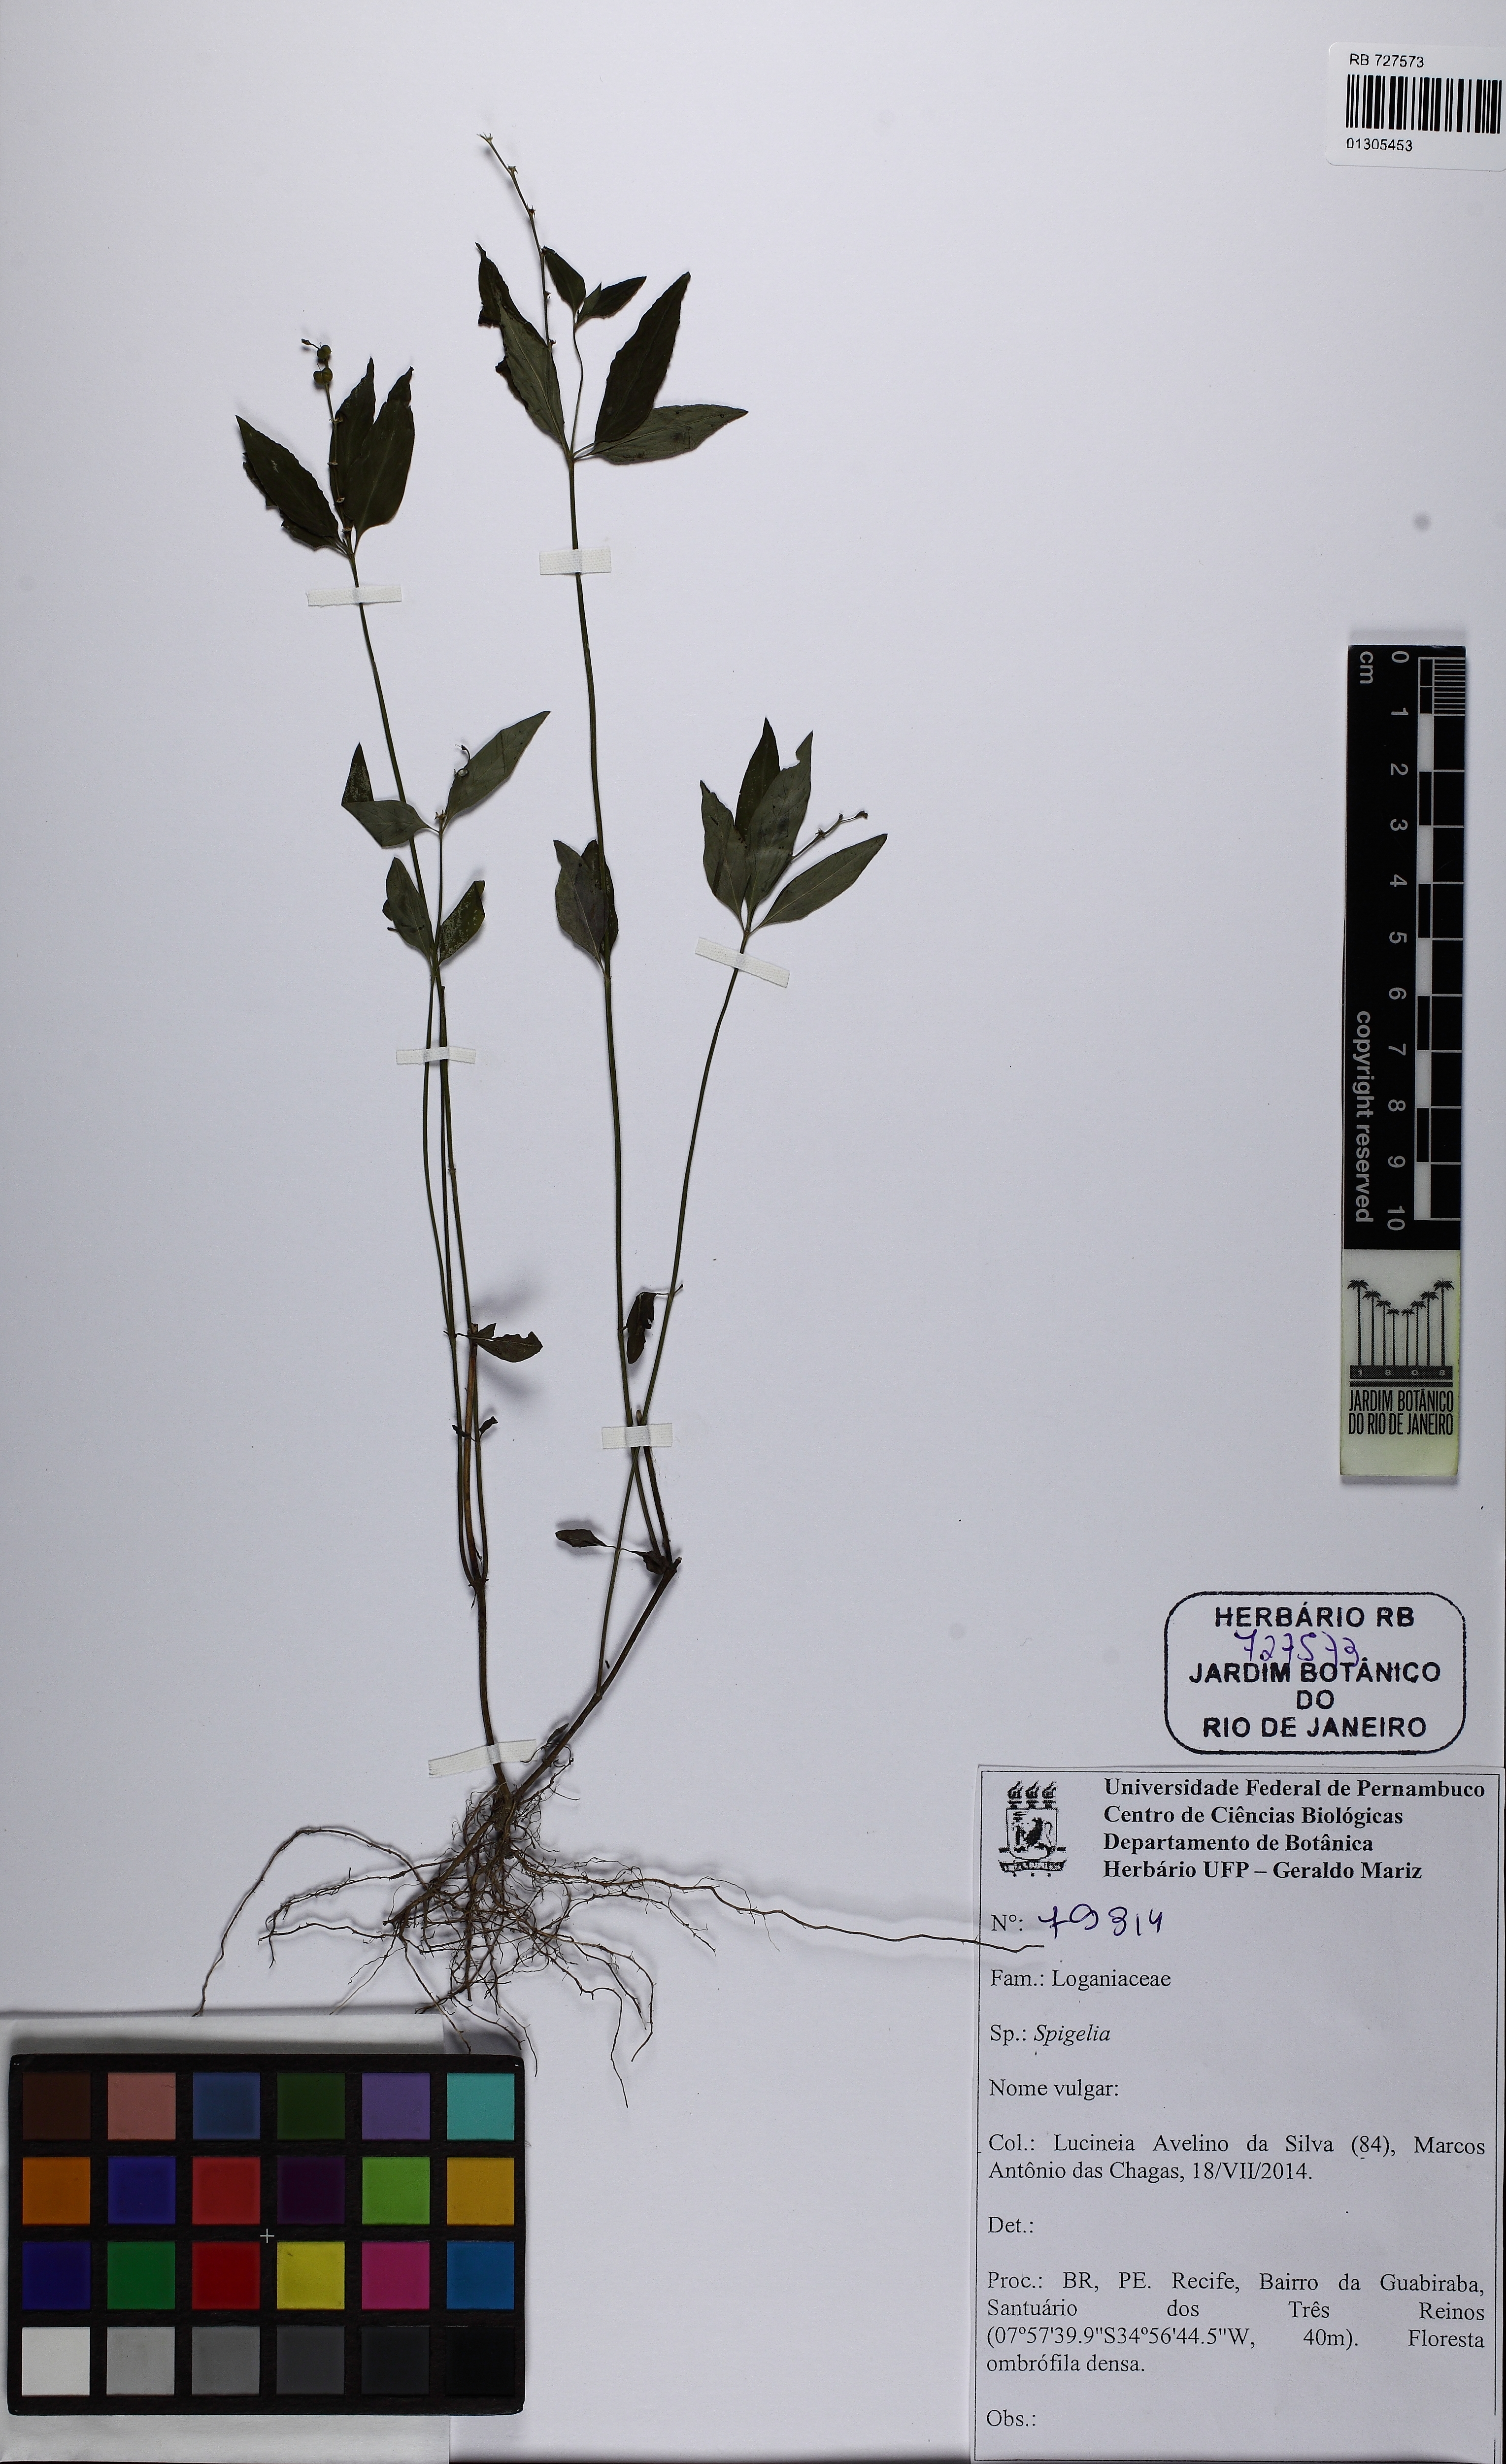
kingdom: Plantae
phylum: Tracheophyta
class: Magnoliopsida
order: Gentianales
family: Loganiaceae
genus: Spigelia
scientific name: Spigelia
